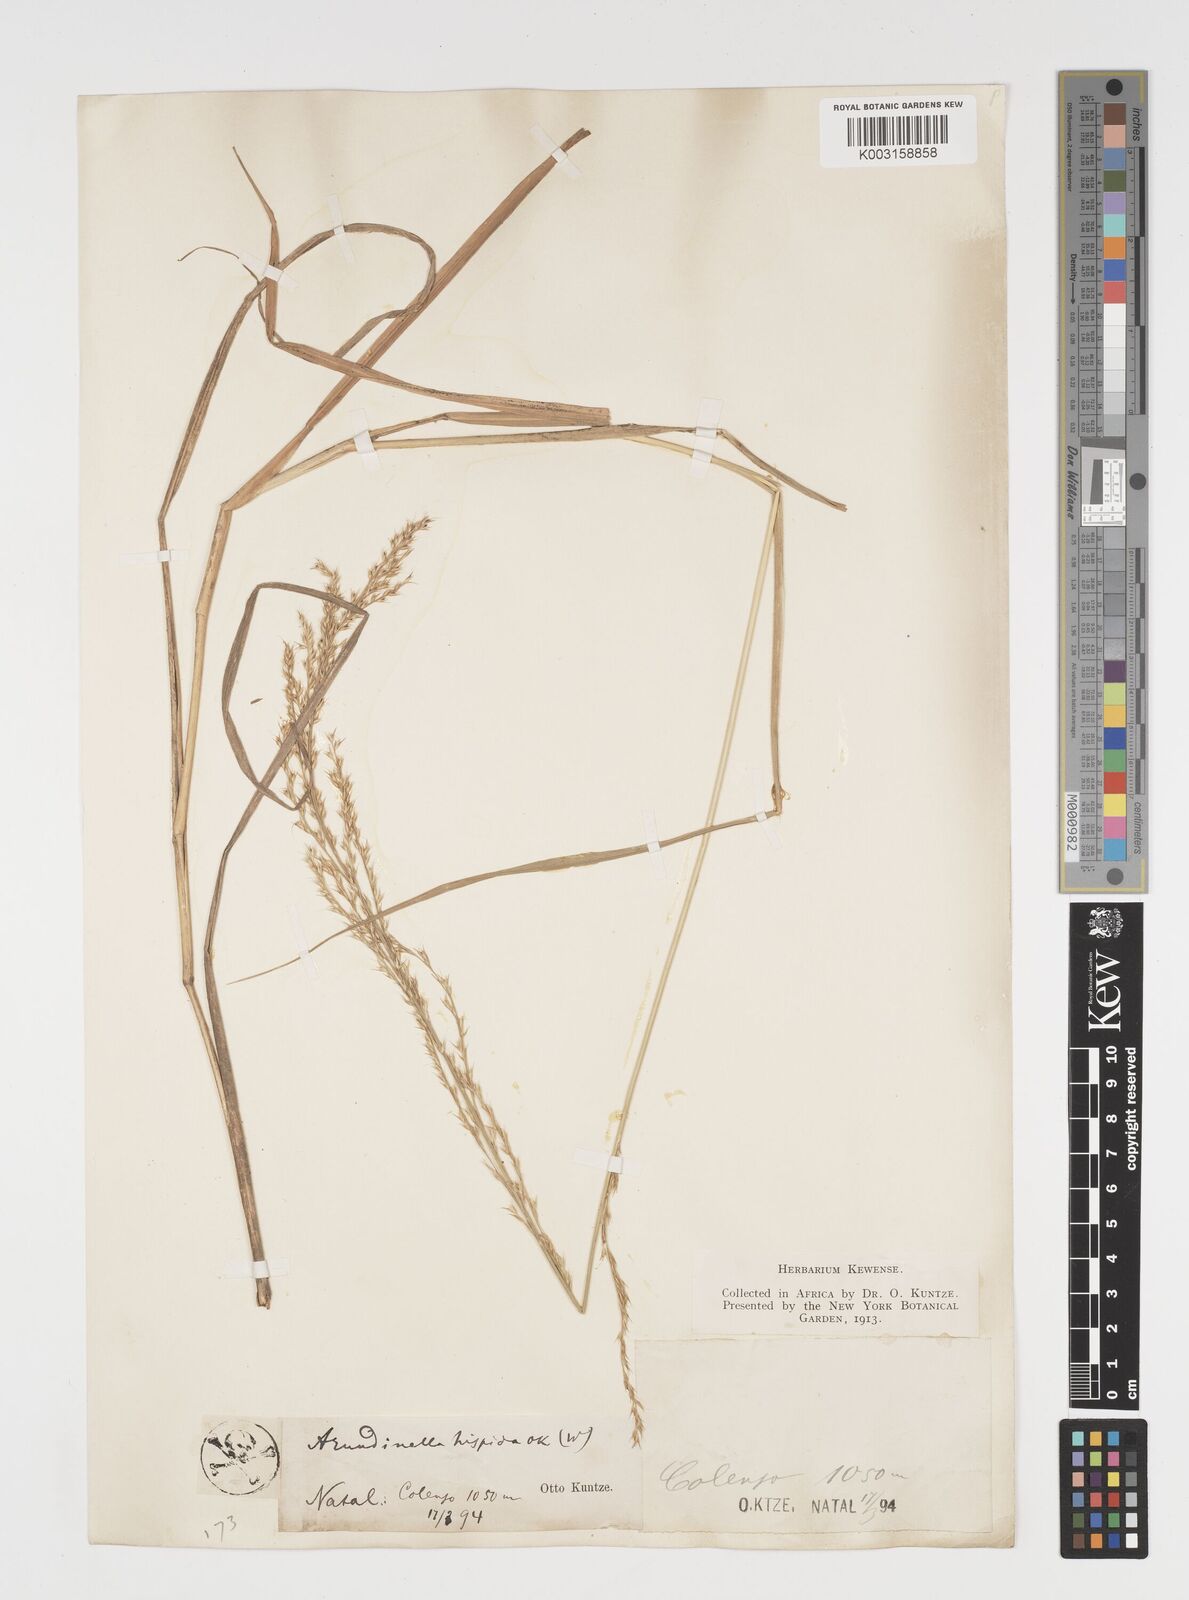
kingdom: Plantae
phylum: Tracheophyta
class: Liliopsida
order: Poales
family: Poaceae
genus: Arundinella
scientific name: Arundinella nepalensis
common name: Reed grass
